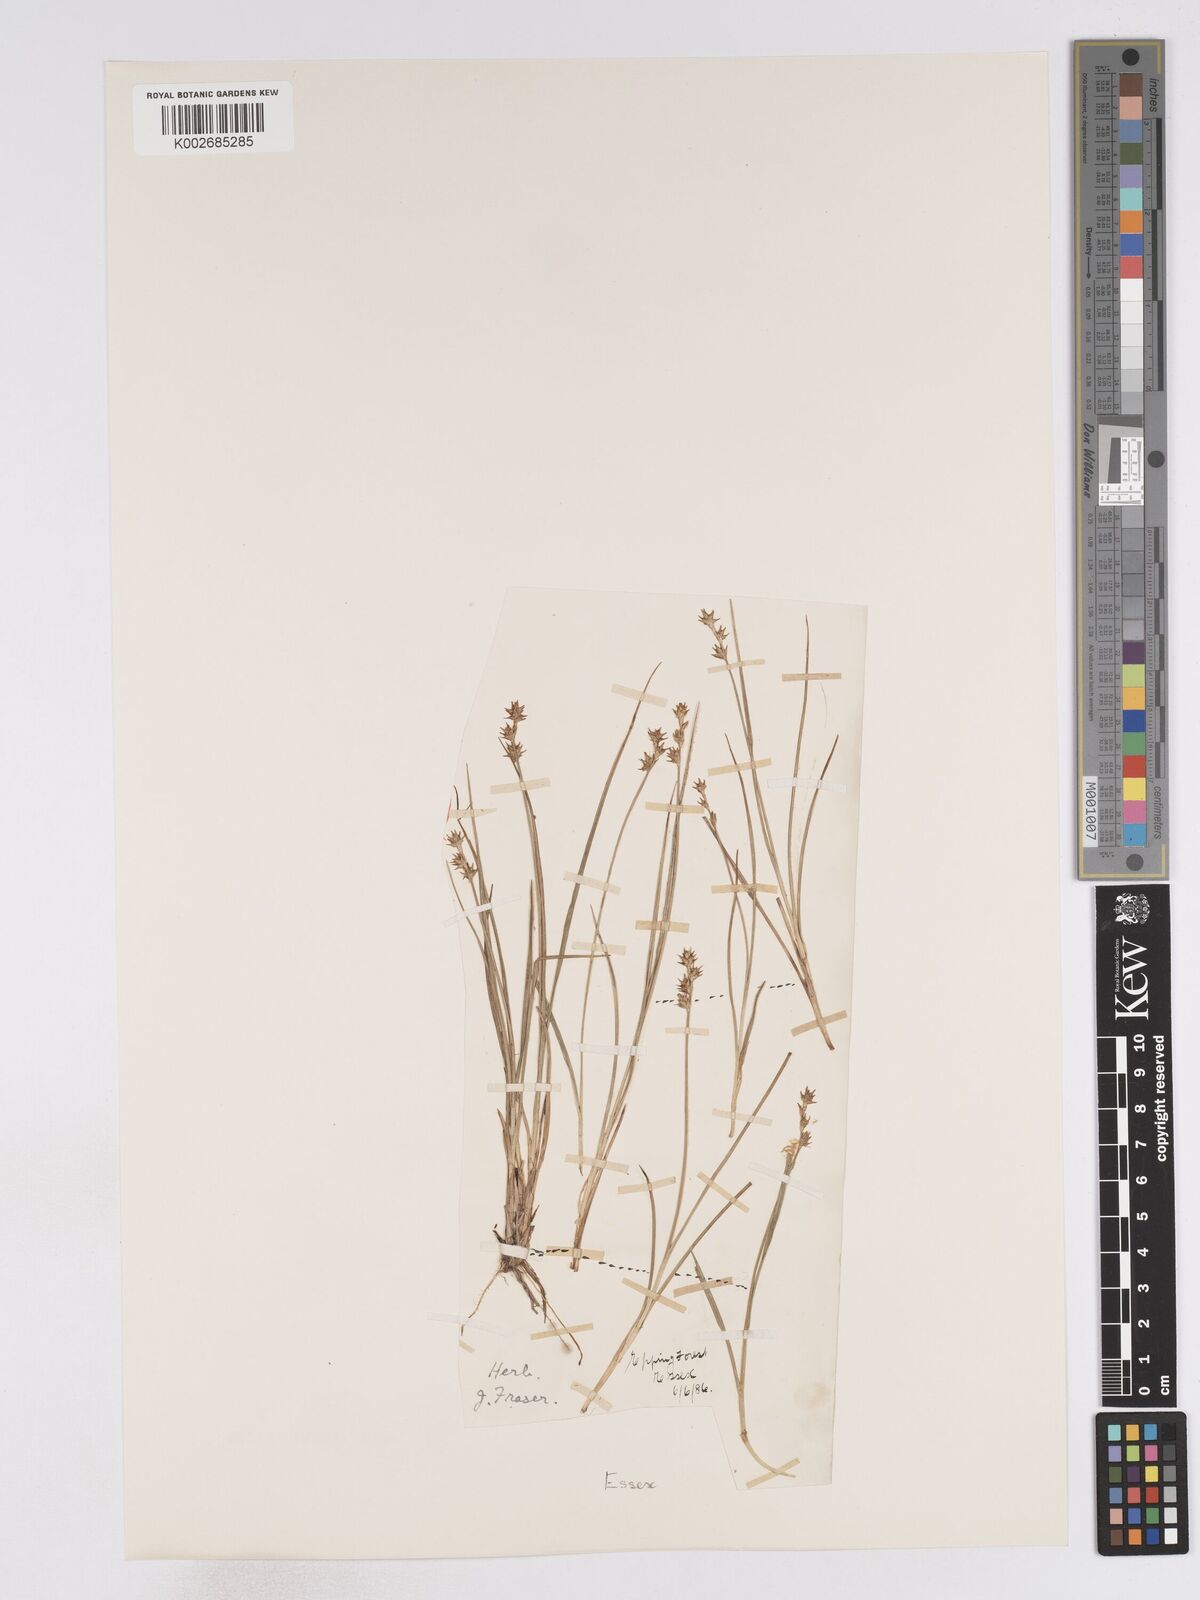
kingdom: Plantae
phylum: Tracheophyta
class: Liliopsida
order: Poales
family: Cyperaceae
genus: Carex
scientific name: Carex echinata
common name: Star sedge
